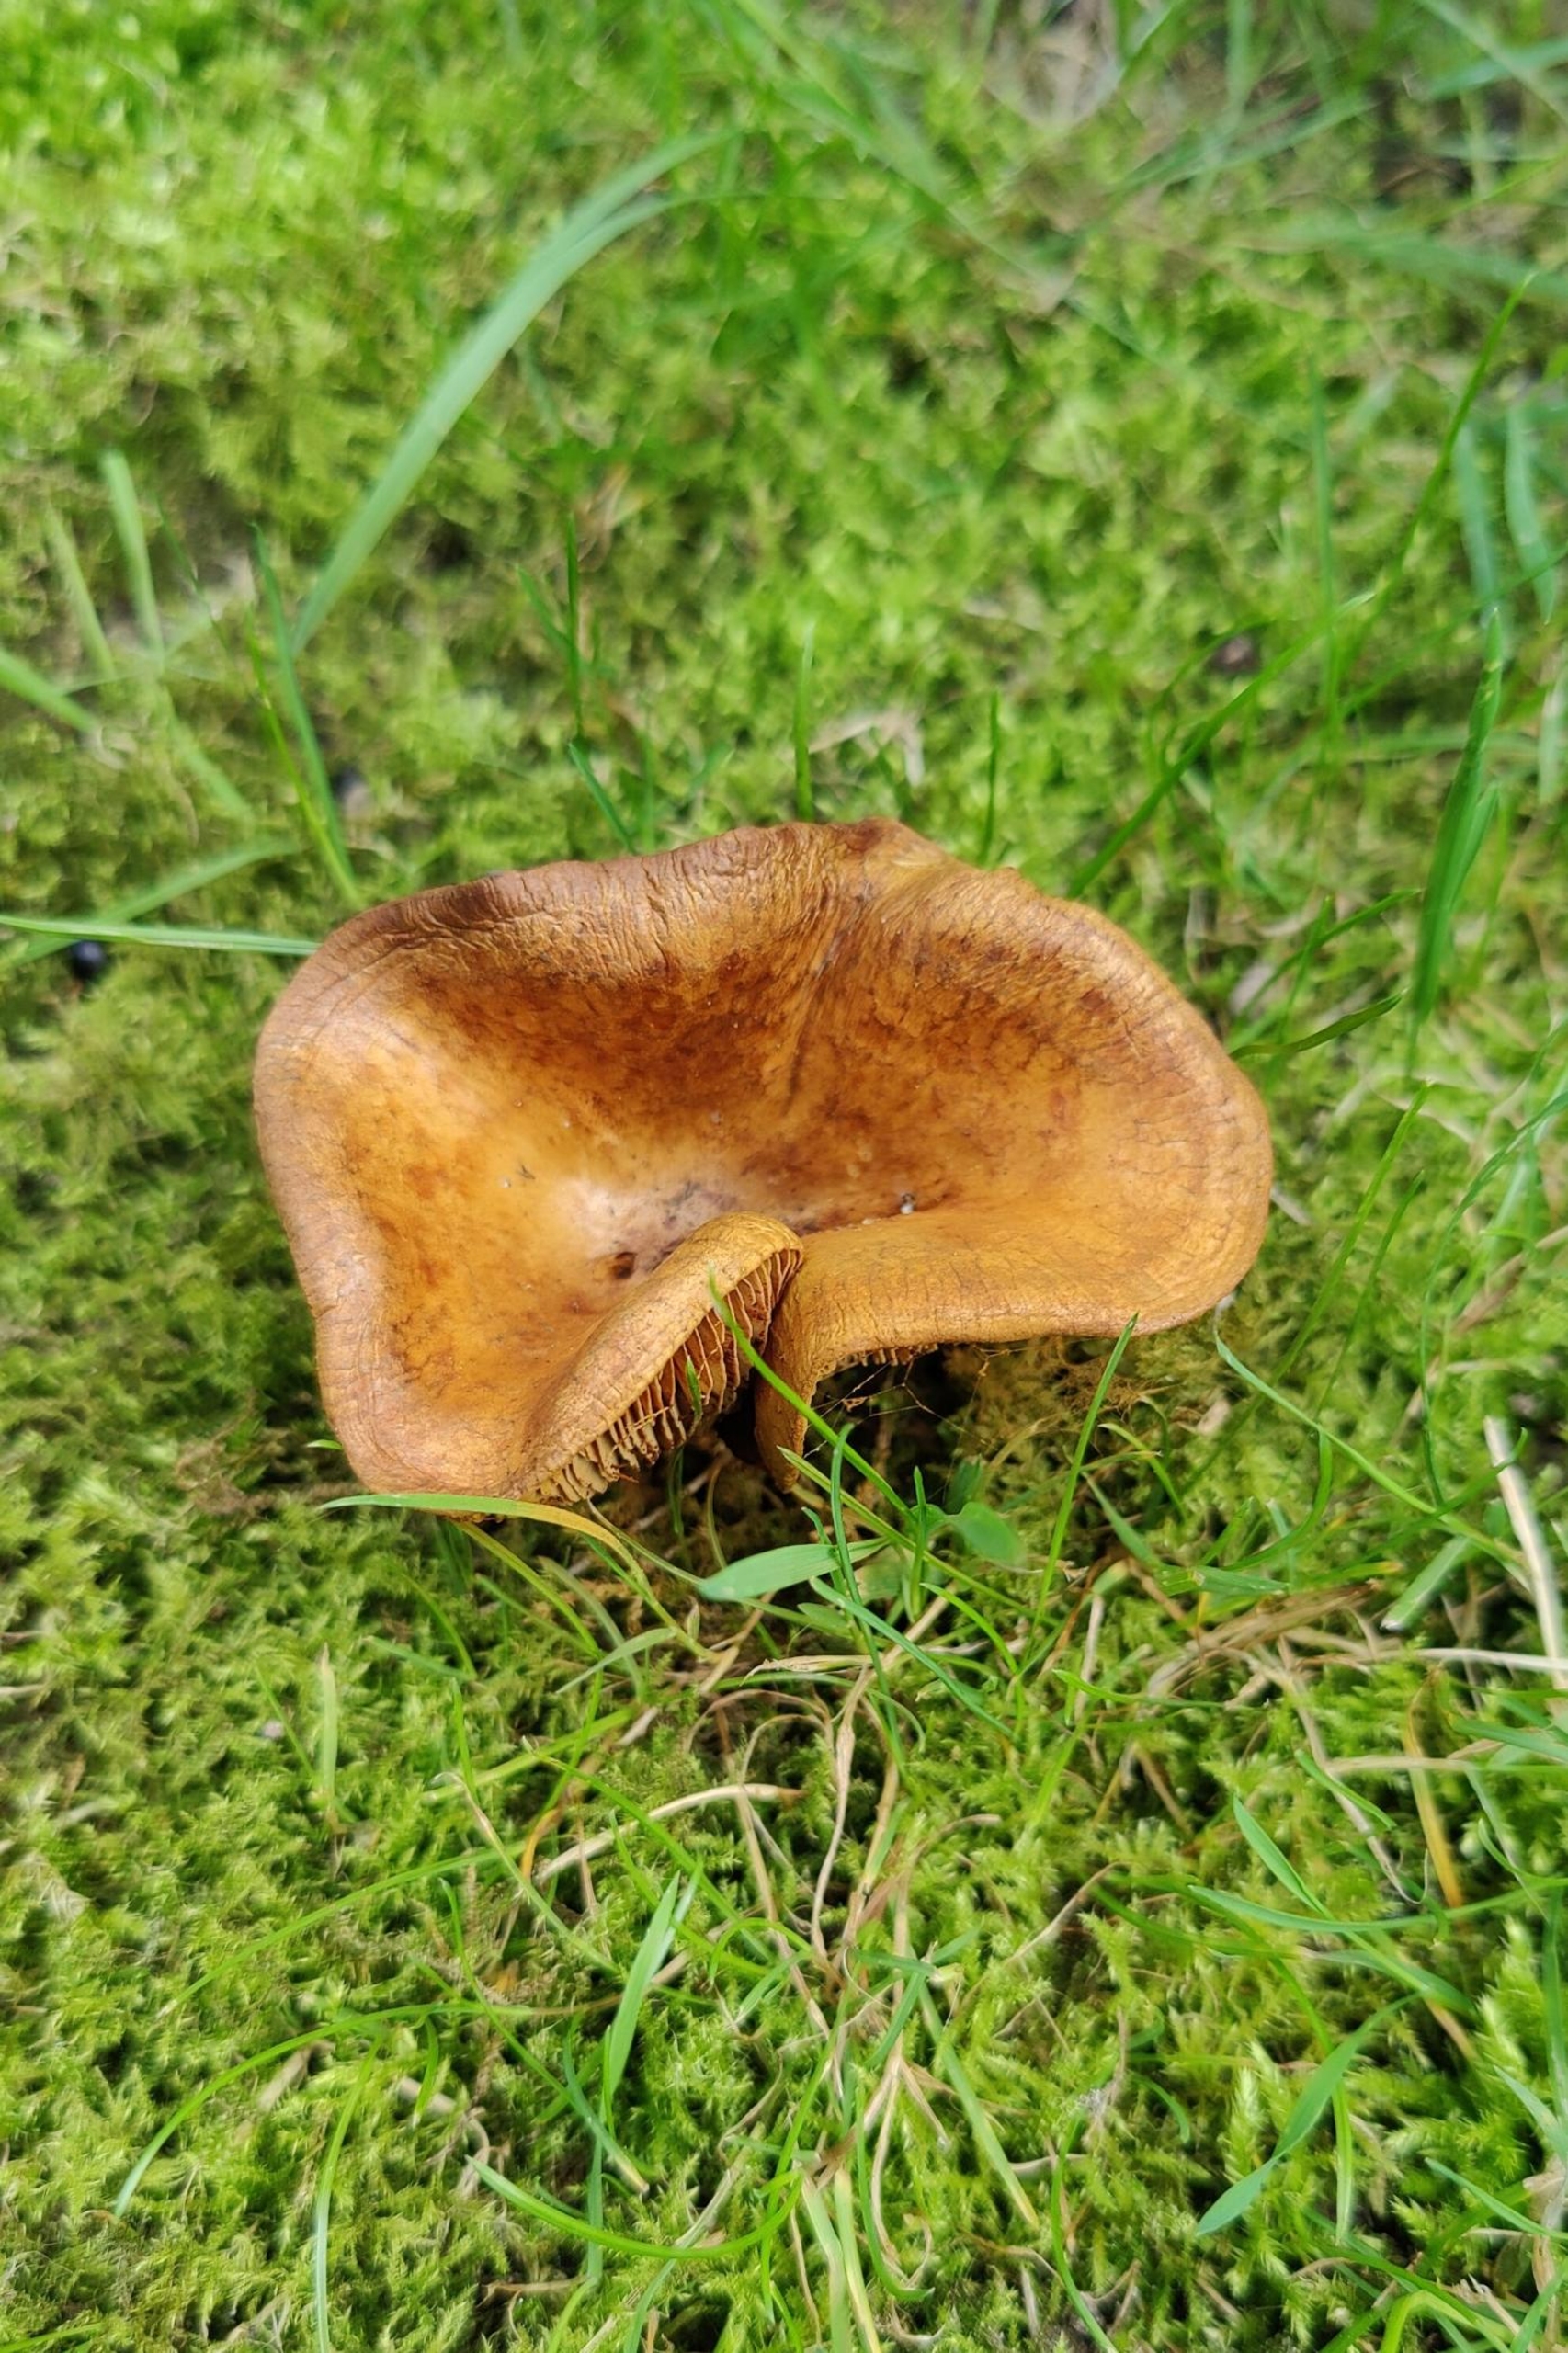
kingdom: Fungi
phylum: Basidiomycota
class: Agaricomycetes
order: Boletales
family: Paxillaceae
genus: Paxillus
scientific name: Paxillus involutus
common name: Almindelig netbladhat
